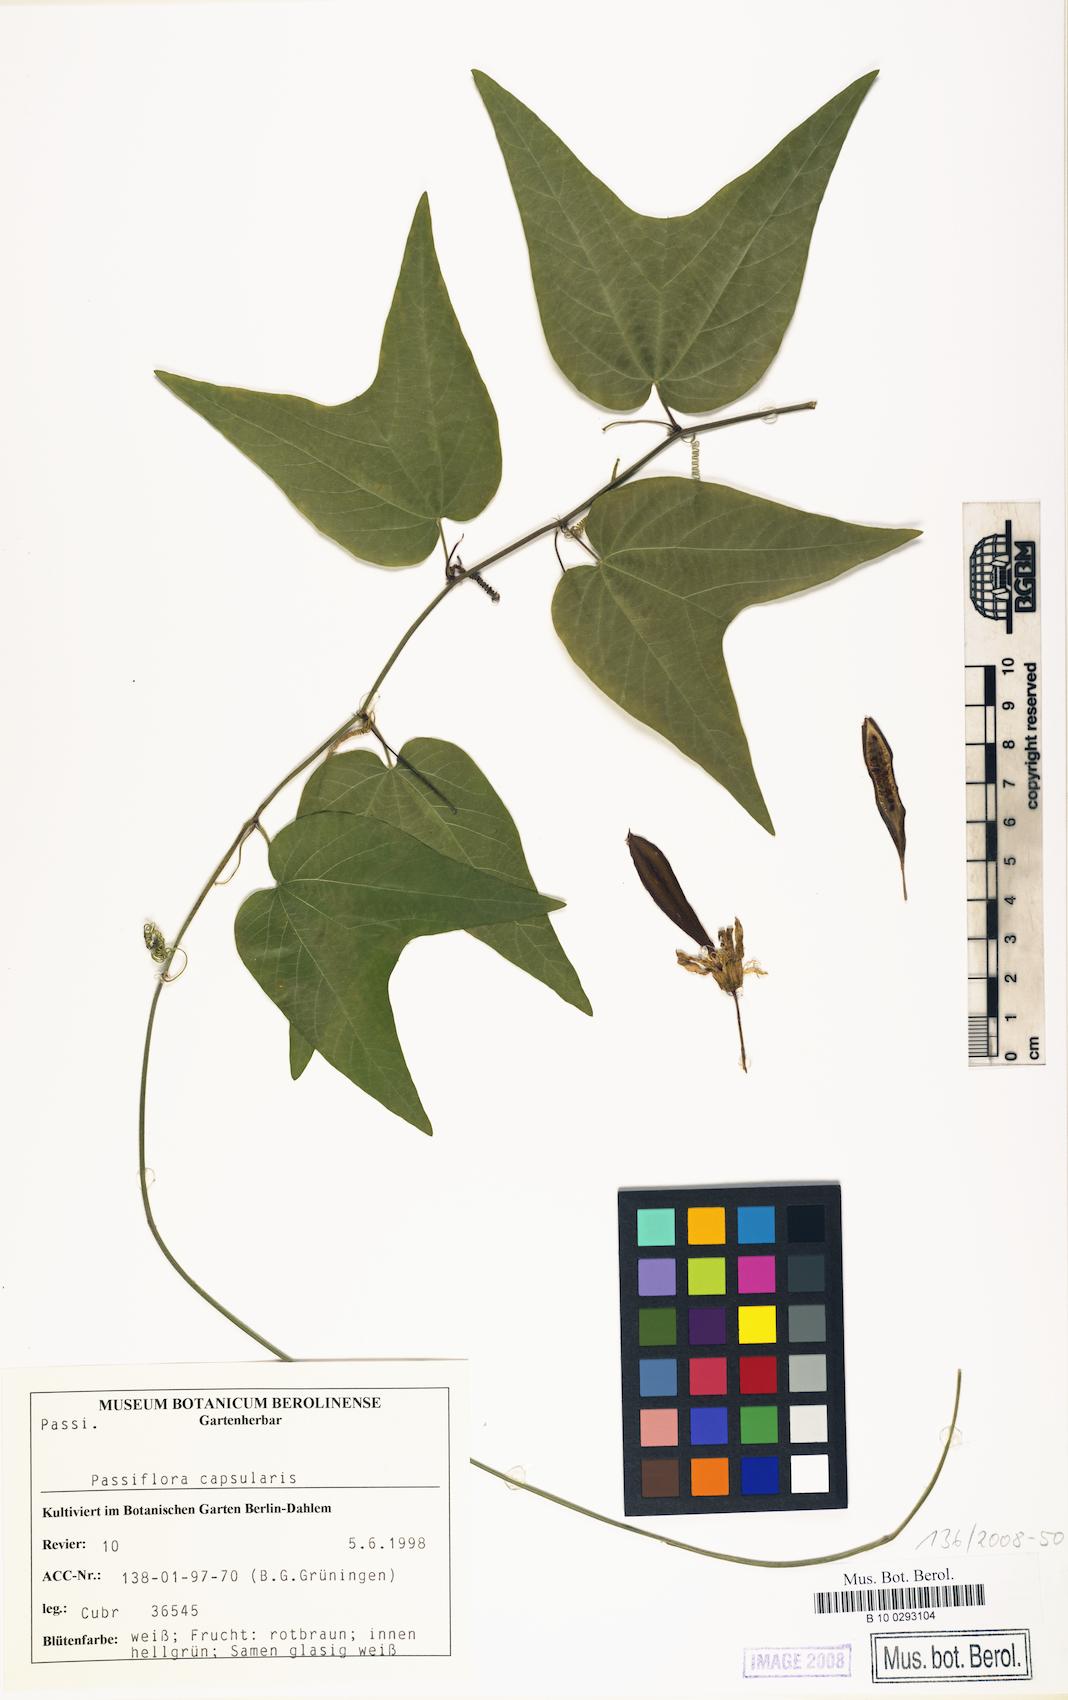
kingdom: Plantae
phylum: Tracheophyta
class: Magnoliopsida
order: Malpighiales
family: Passifloraceae
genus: Passiflora
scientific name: Passiflora capsularis
